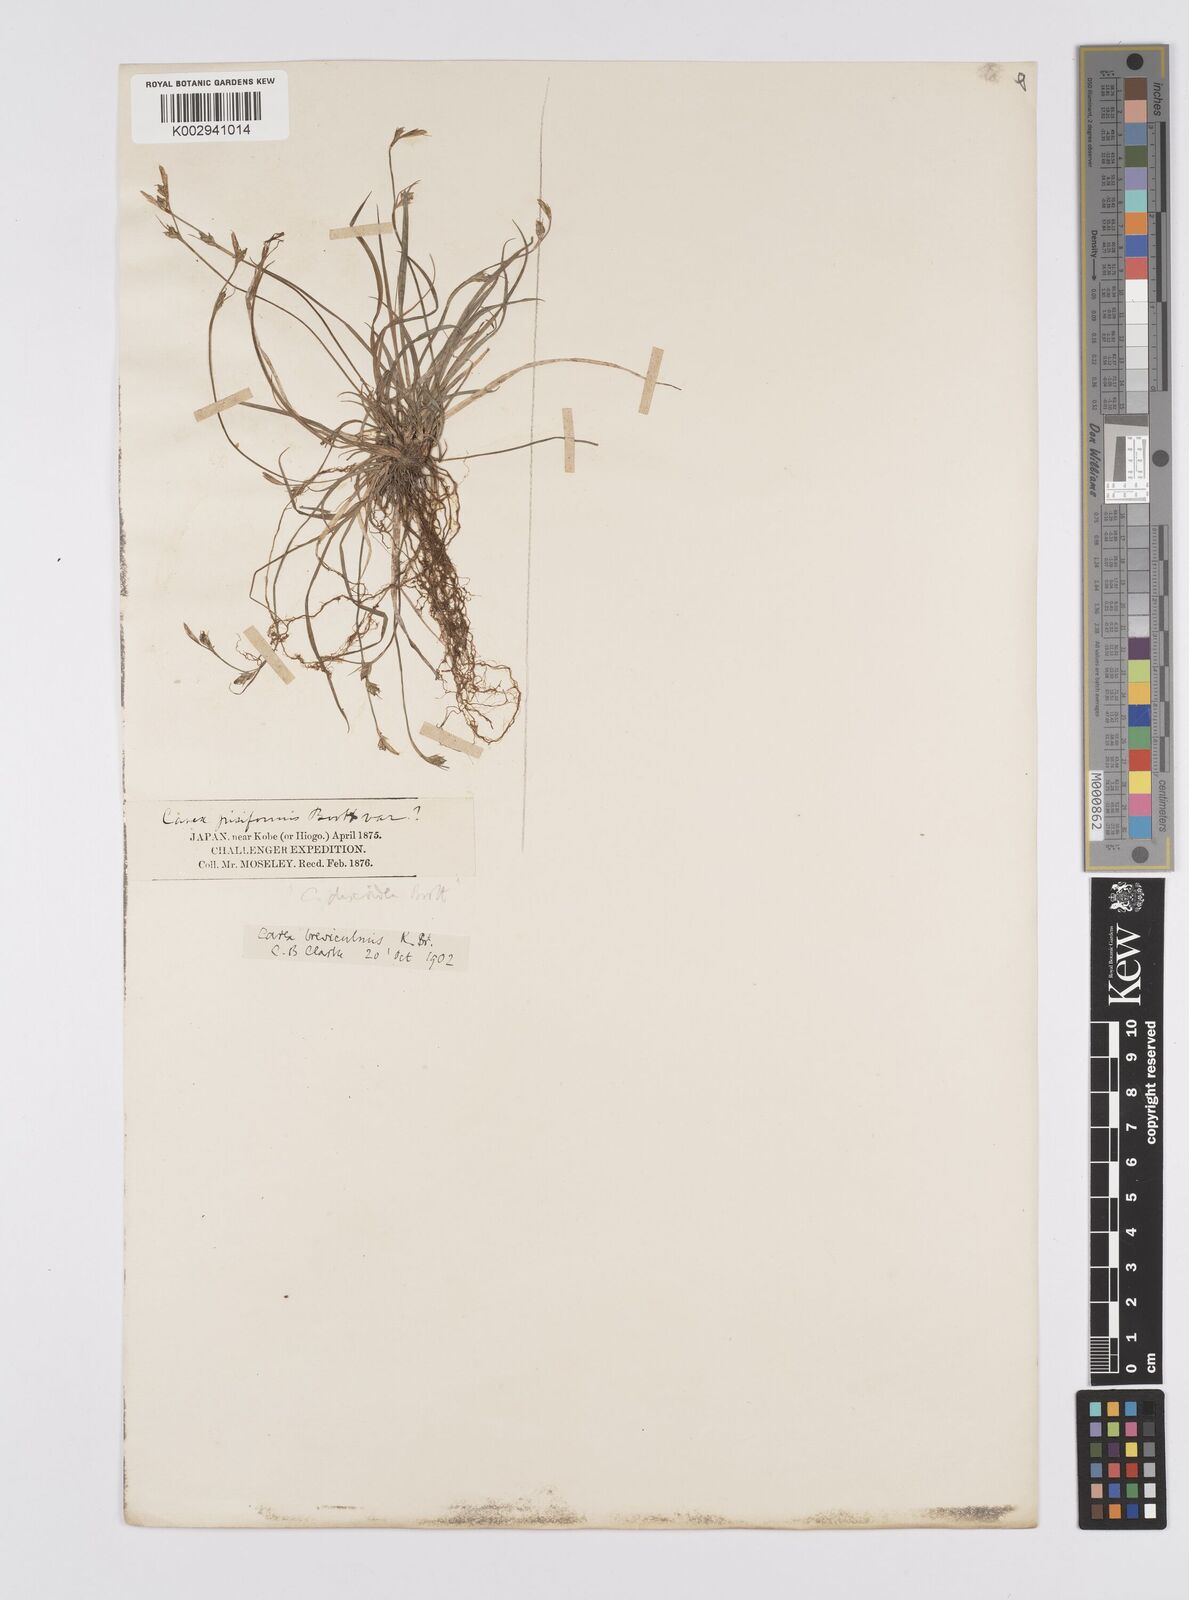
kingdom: Plantae
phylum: Tracheophyta
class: Liliopsida
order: Poales
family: Cyperaceae
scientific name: Cyperaceae
